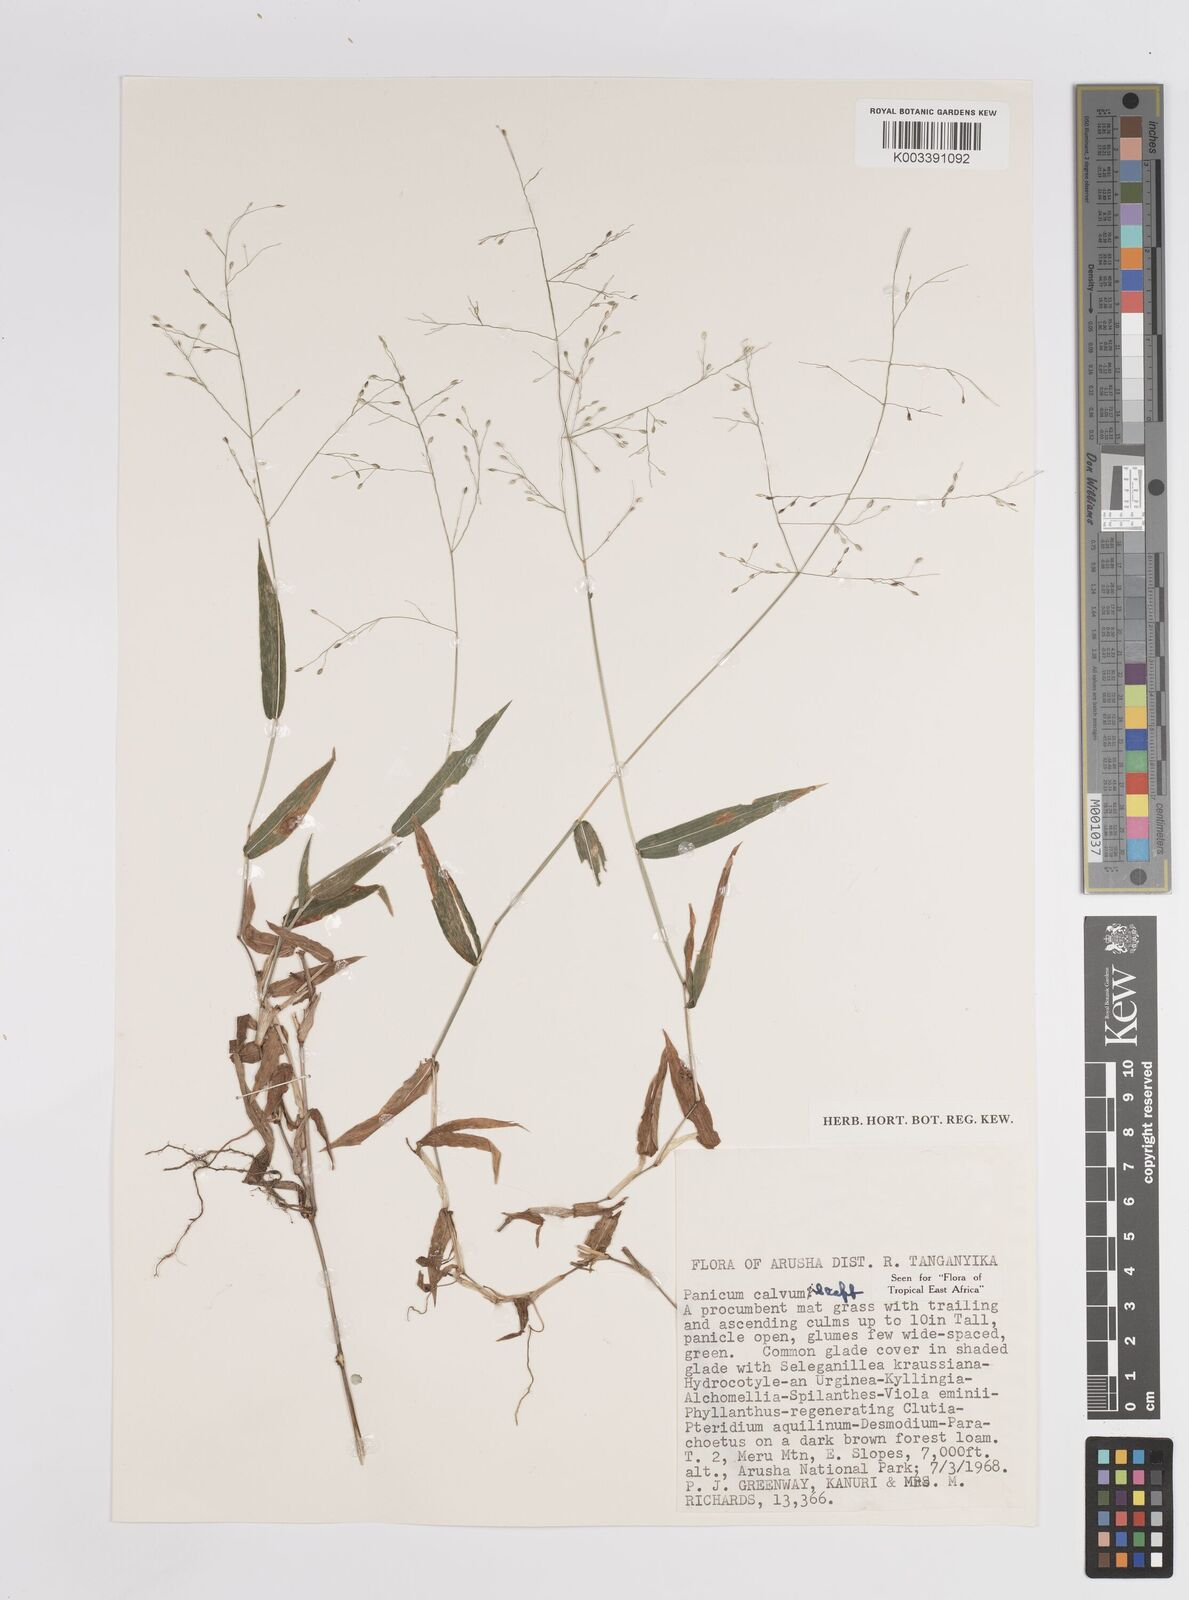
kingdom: Plantae
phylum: Tracheophyta
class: Liliopsida
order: Poales
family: Poaceae
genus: Panicum
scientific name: Panicum calvum
